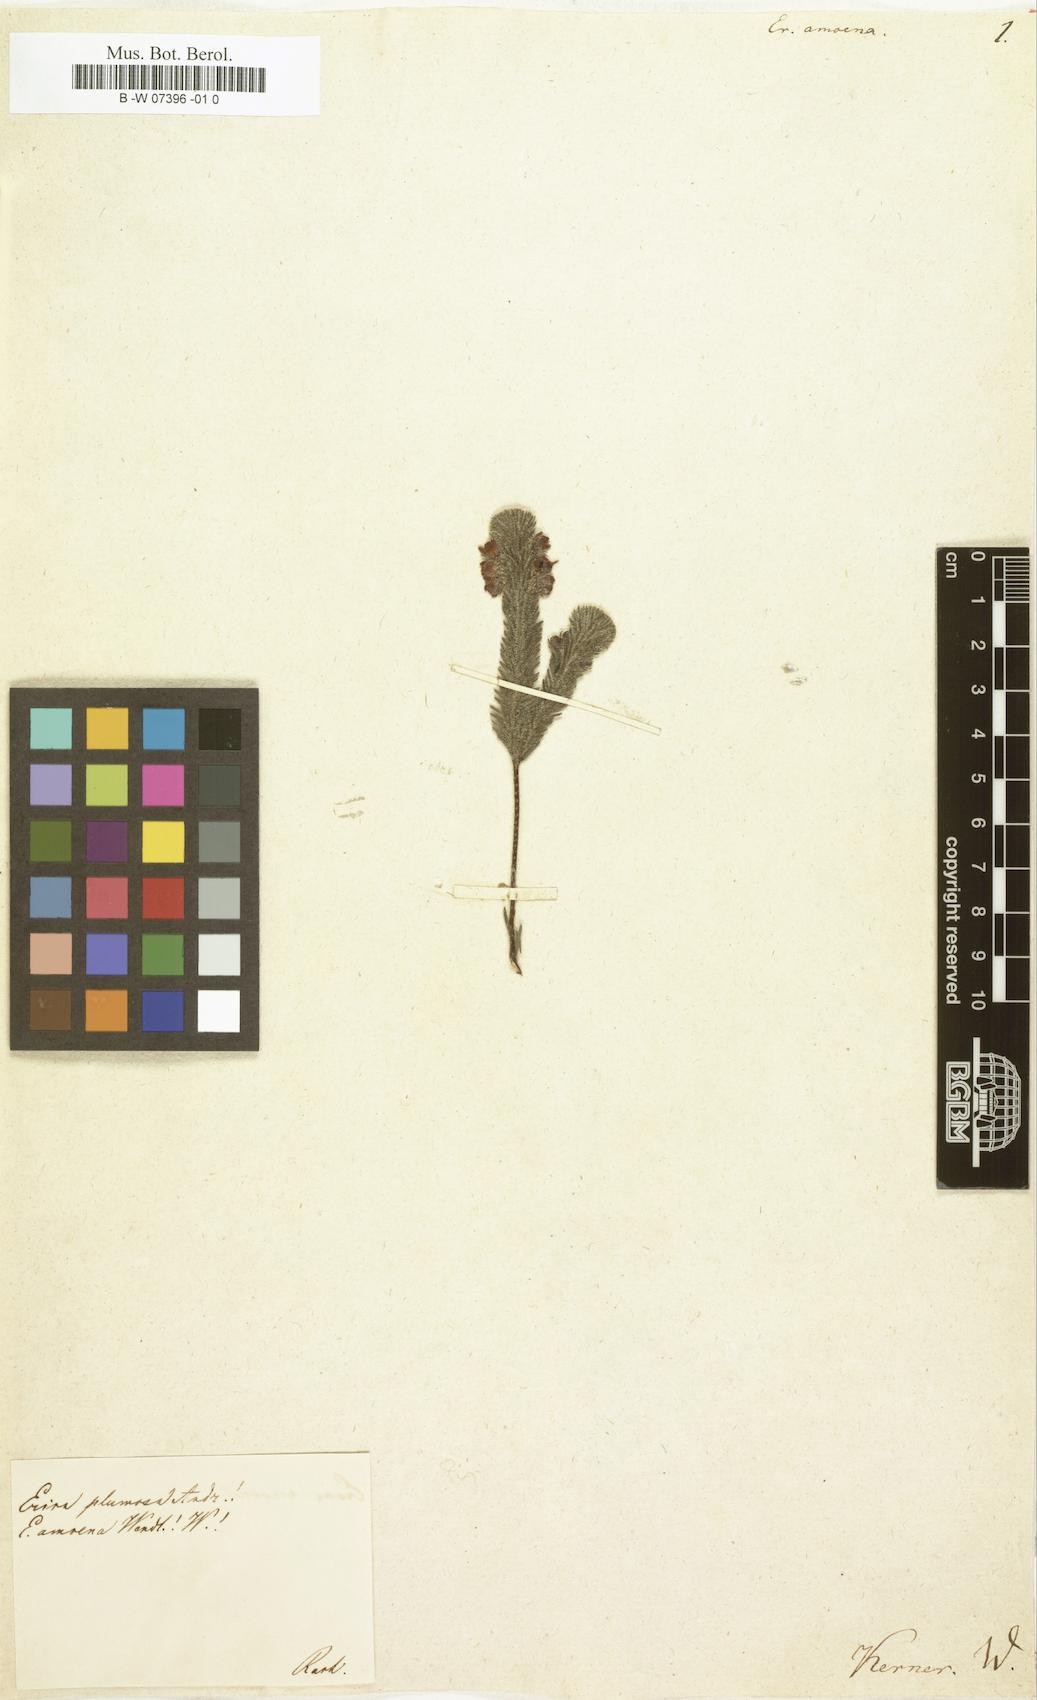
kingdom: Plantae
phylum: Tracheophyta
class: Magnoliopsida
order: Ericales
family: Ericaceae
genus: Erica
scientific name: Erica amoena
